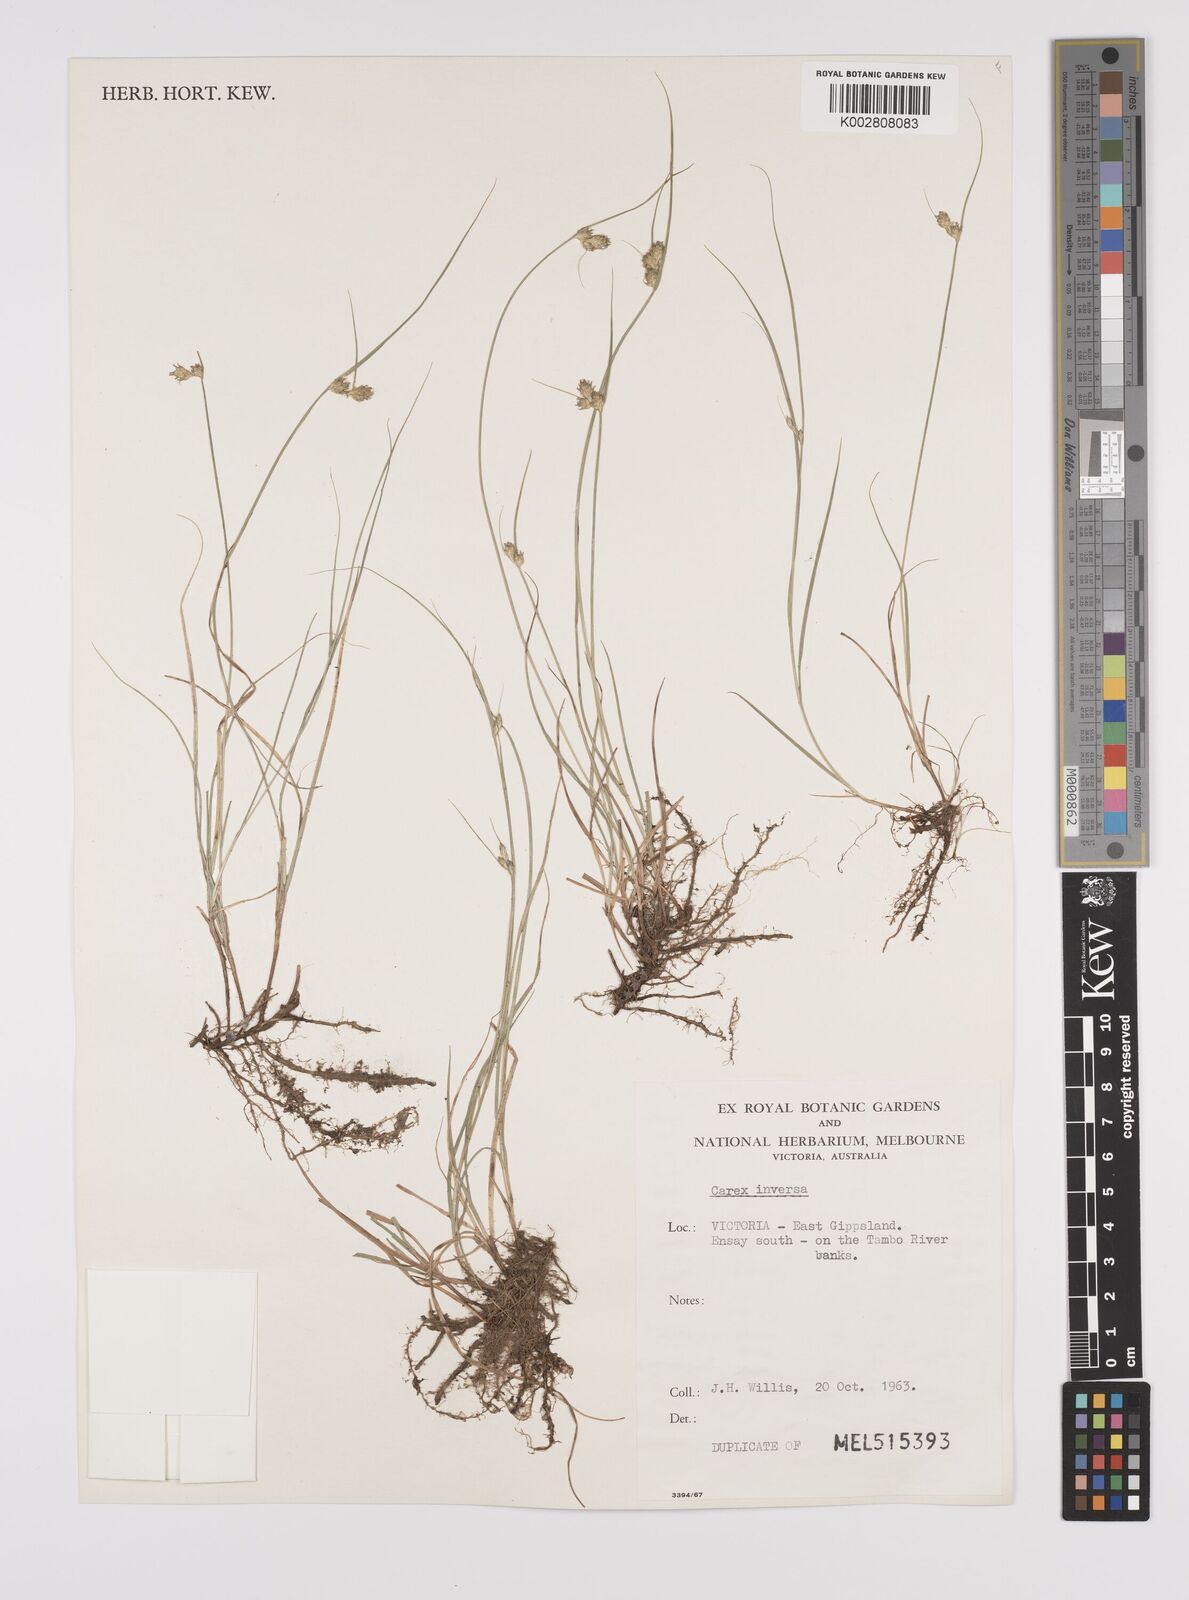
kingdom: Plantae
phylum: Tracheophyta
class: Liliopsida
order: Poales
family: Cyperaceae
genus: Carex
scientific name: Carex inversa
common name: Knob sedge
